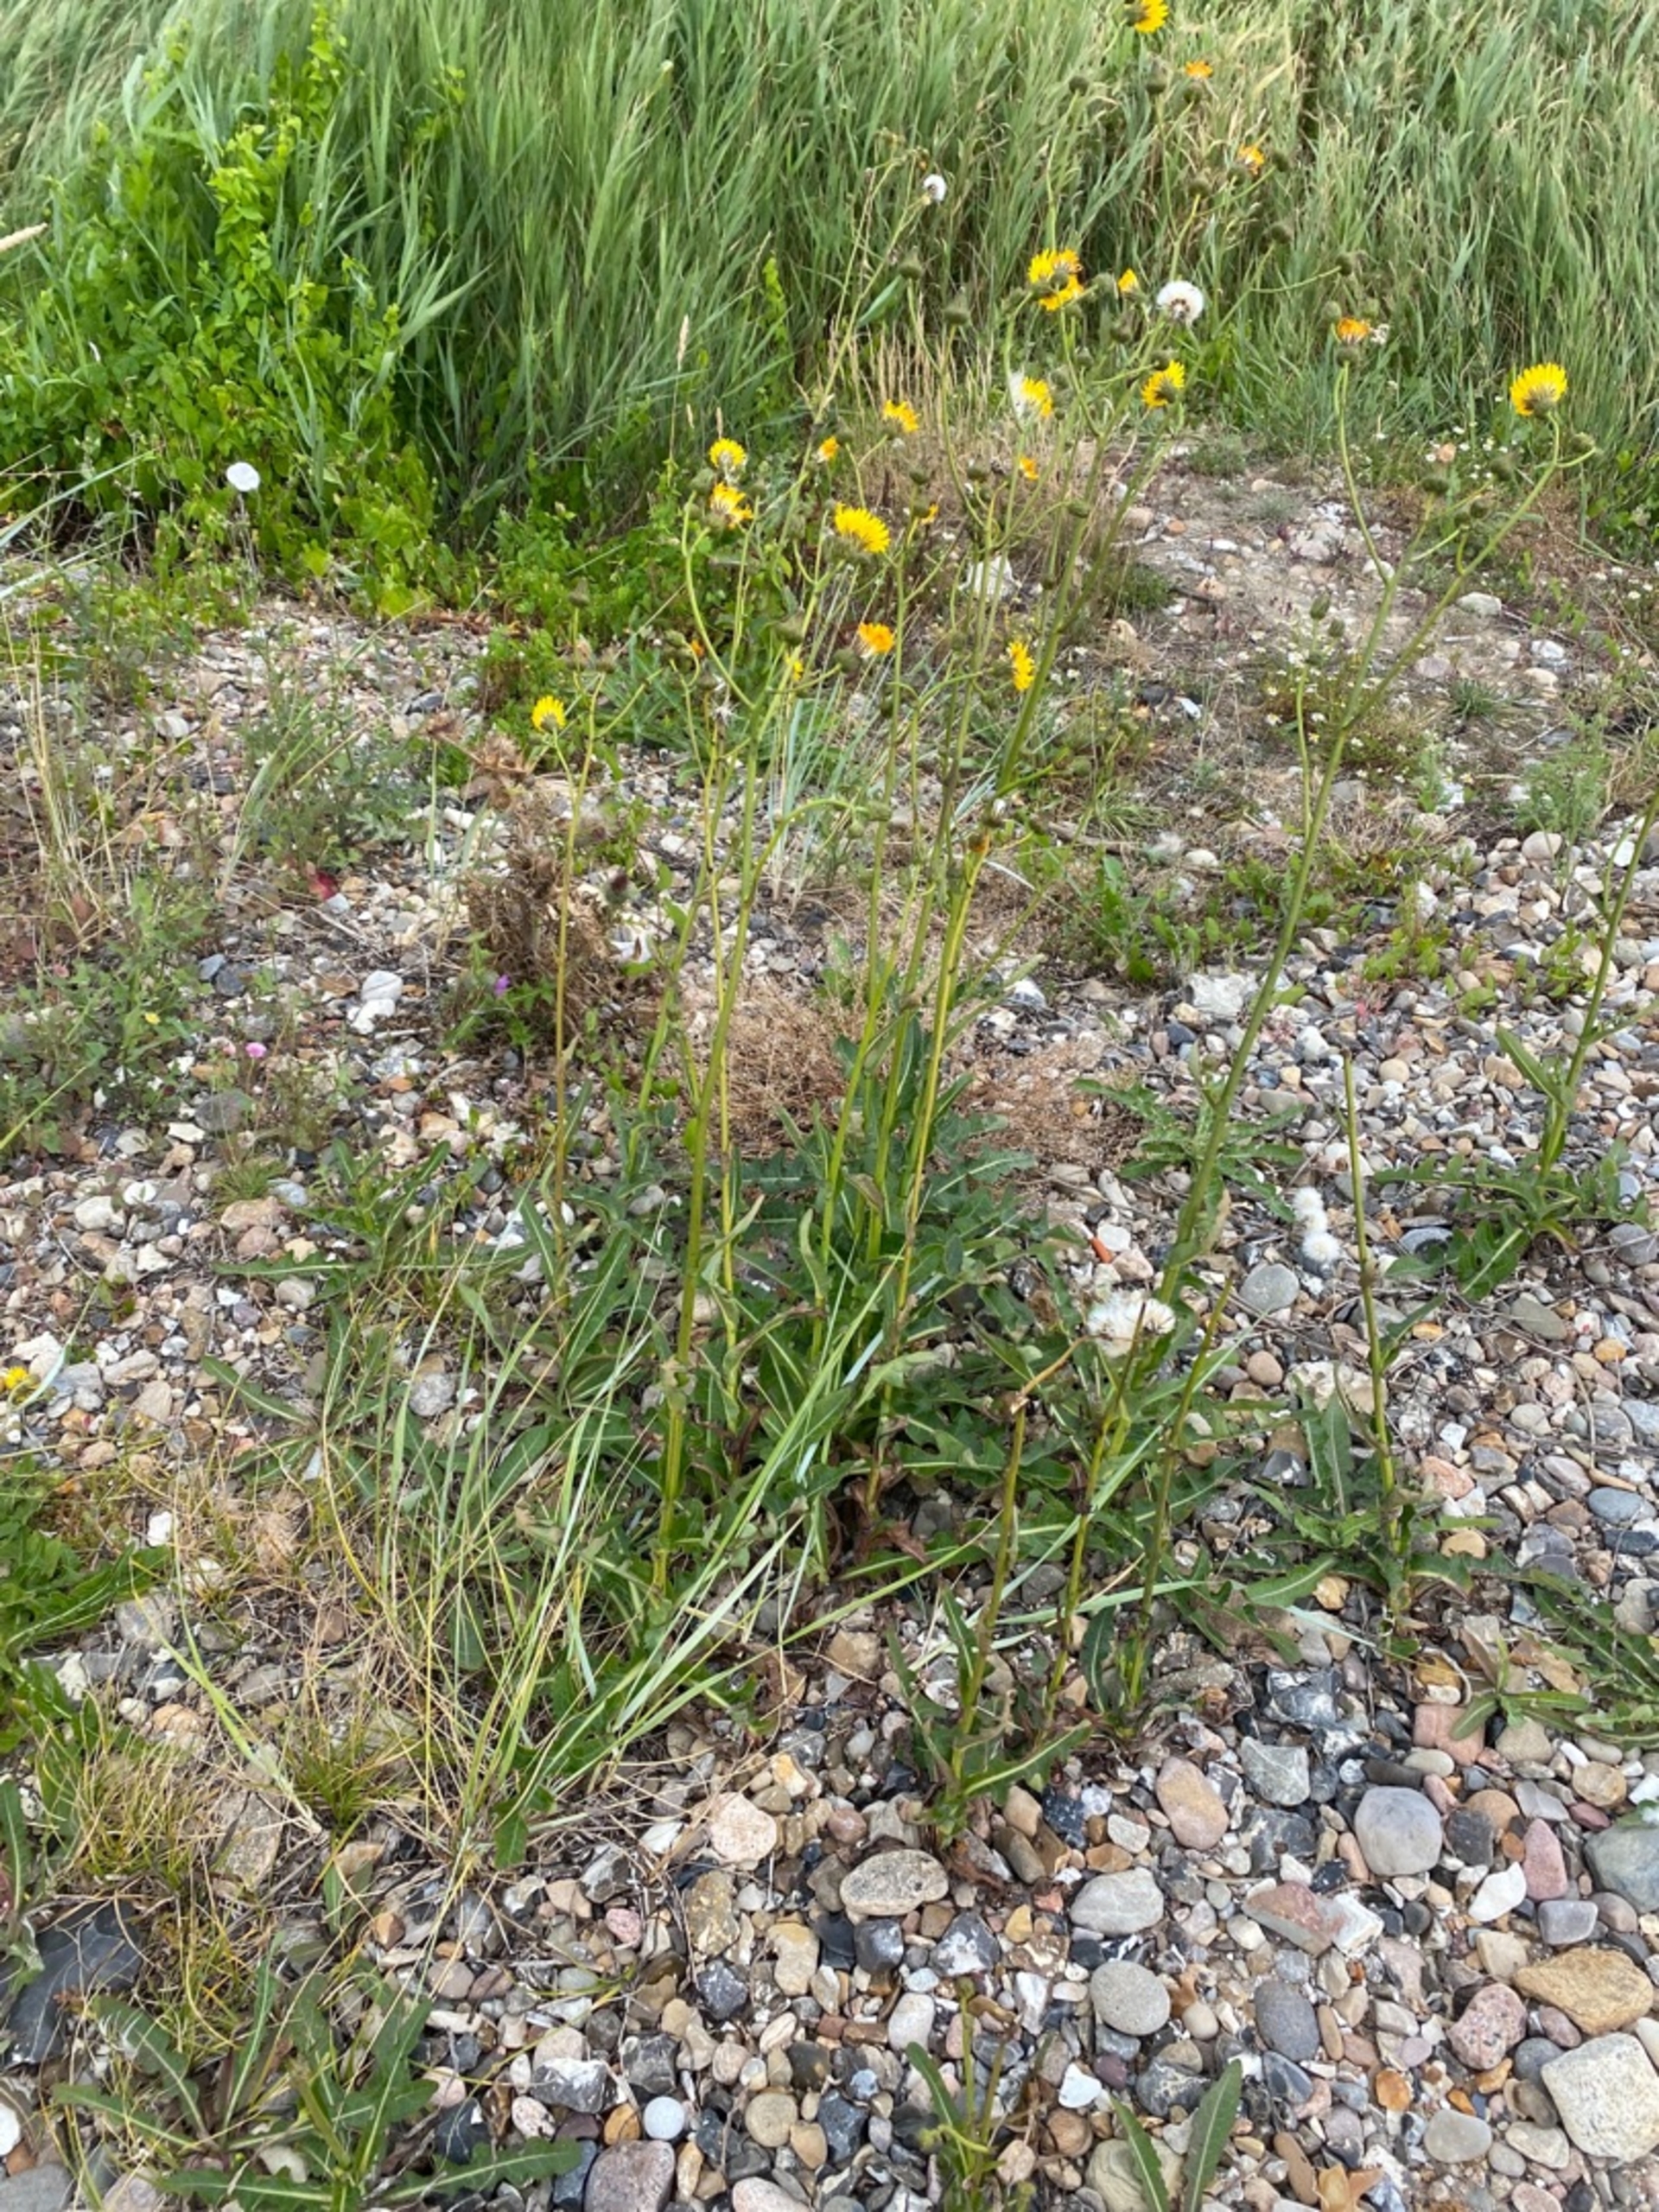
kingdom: Plantae
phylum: Tracheophyta
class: Magnoliopsida
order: Asterales
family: Asteraceae
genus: Sonchus
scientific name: Sonchus arvensis
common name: Ager-svinemælk
